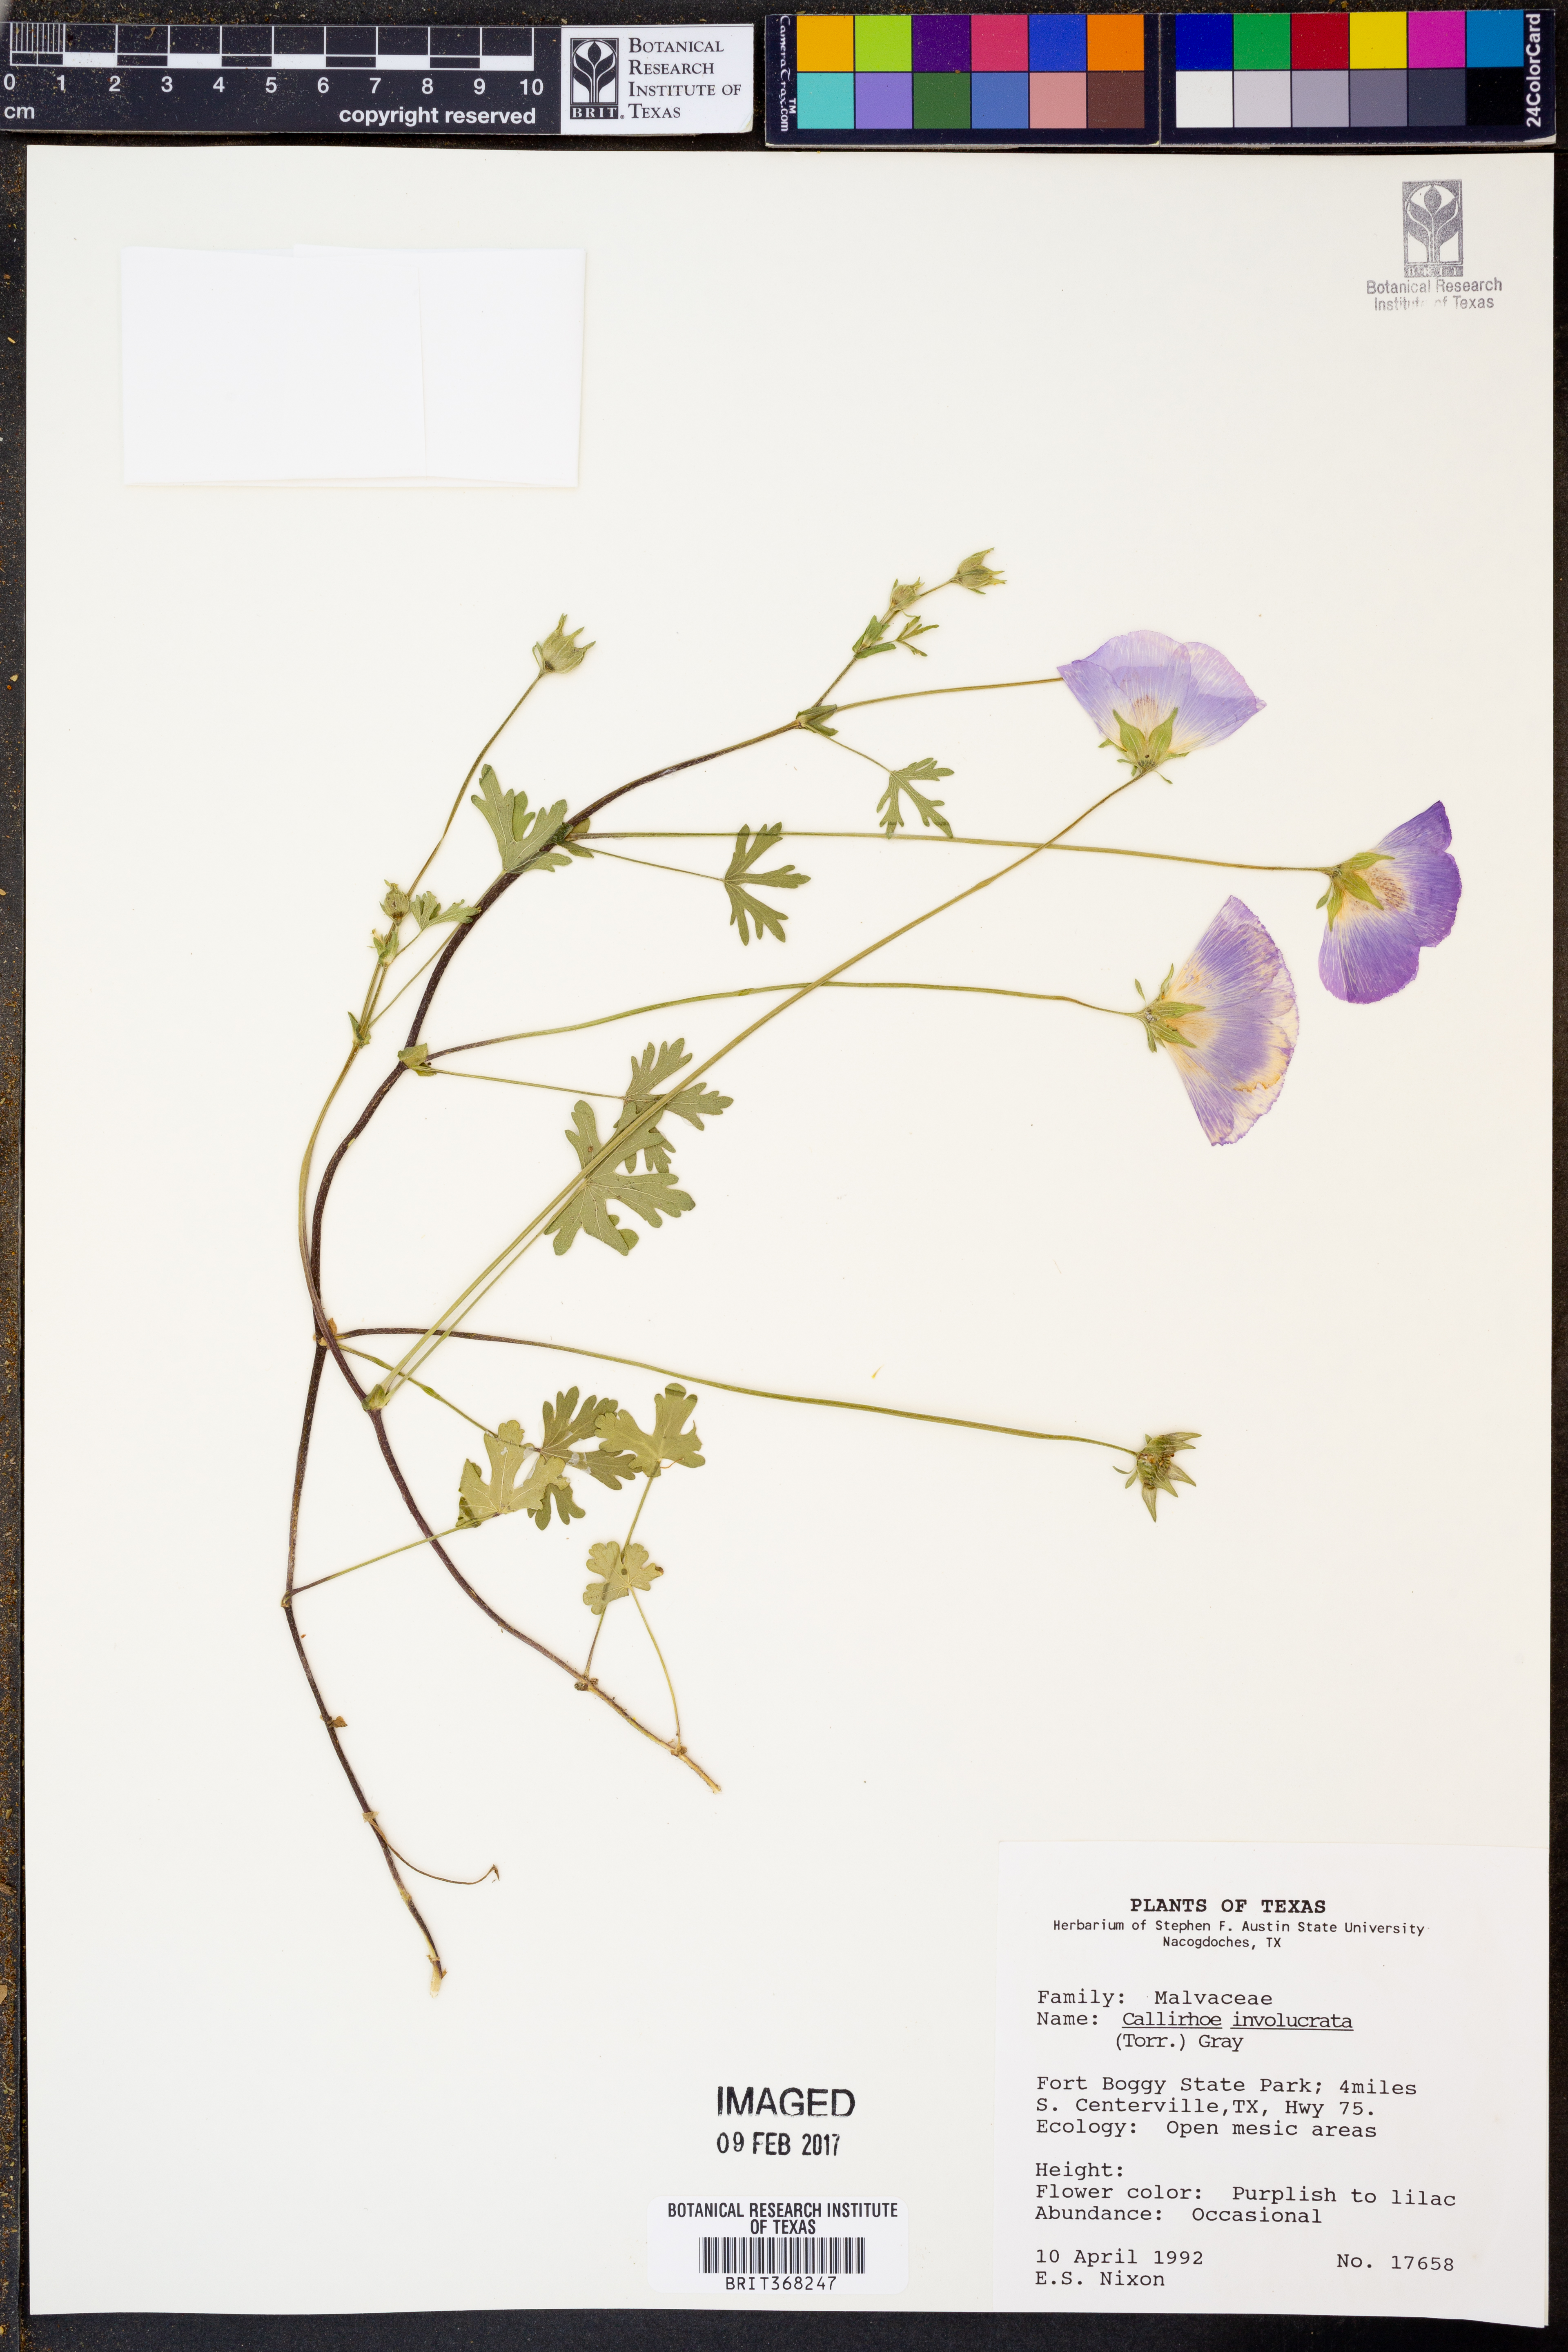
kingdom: Plantae
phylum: Tracheophyta
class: Magnoliopsida
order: Malvales
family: Malvaceae
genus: Callirhoe
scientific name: Callirhoe involucrata
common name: Purple poppy-mallow
